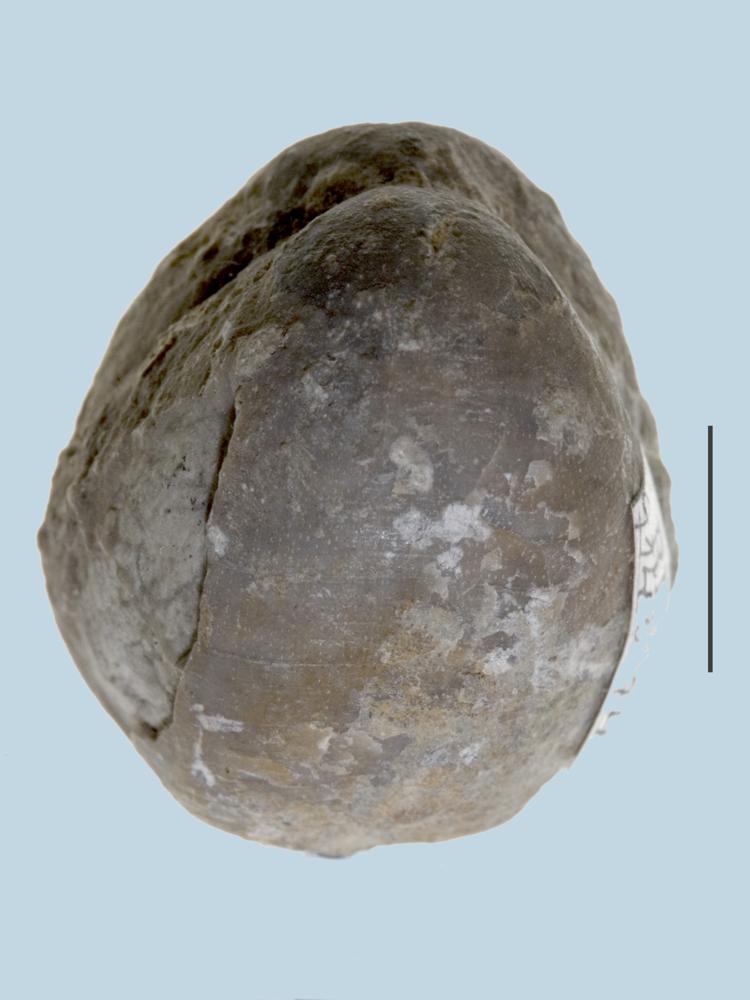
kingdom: Animalia
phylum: Brachiopoda
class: Rhynchonellata
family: Porambonitidae
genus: Porambonites
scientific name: Porambonites
